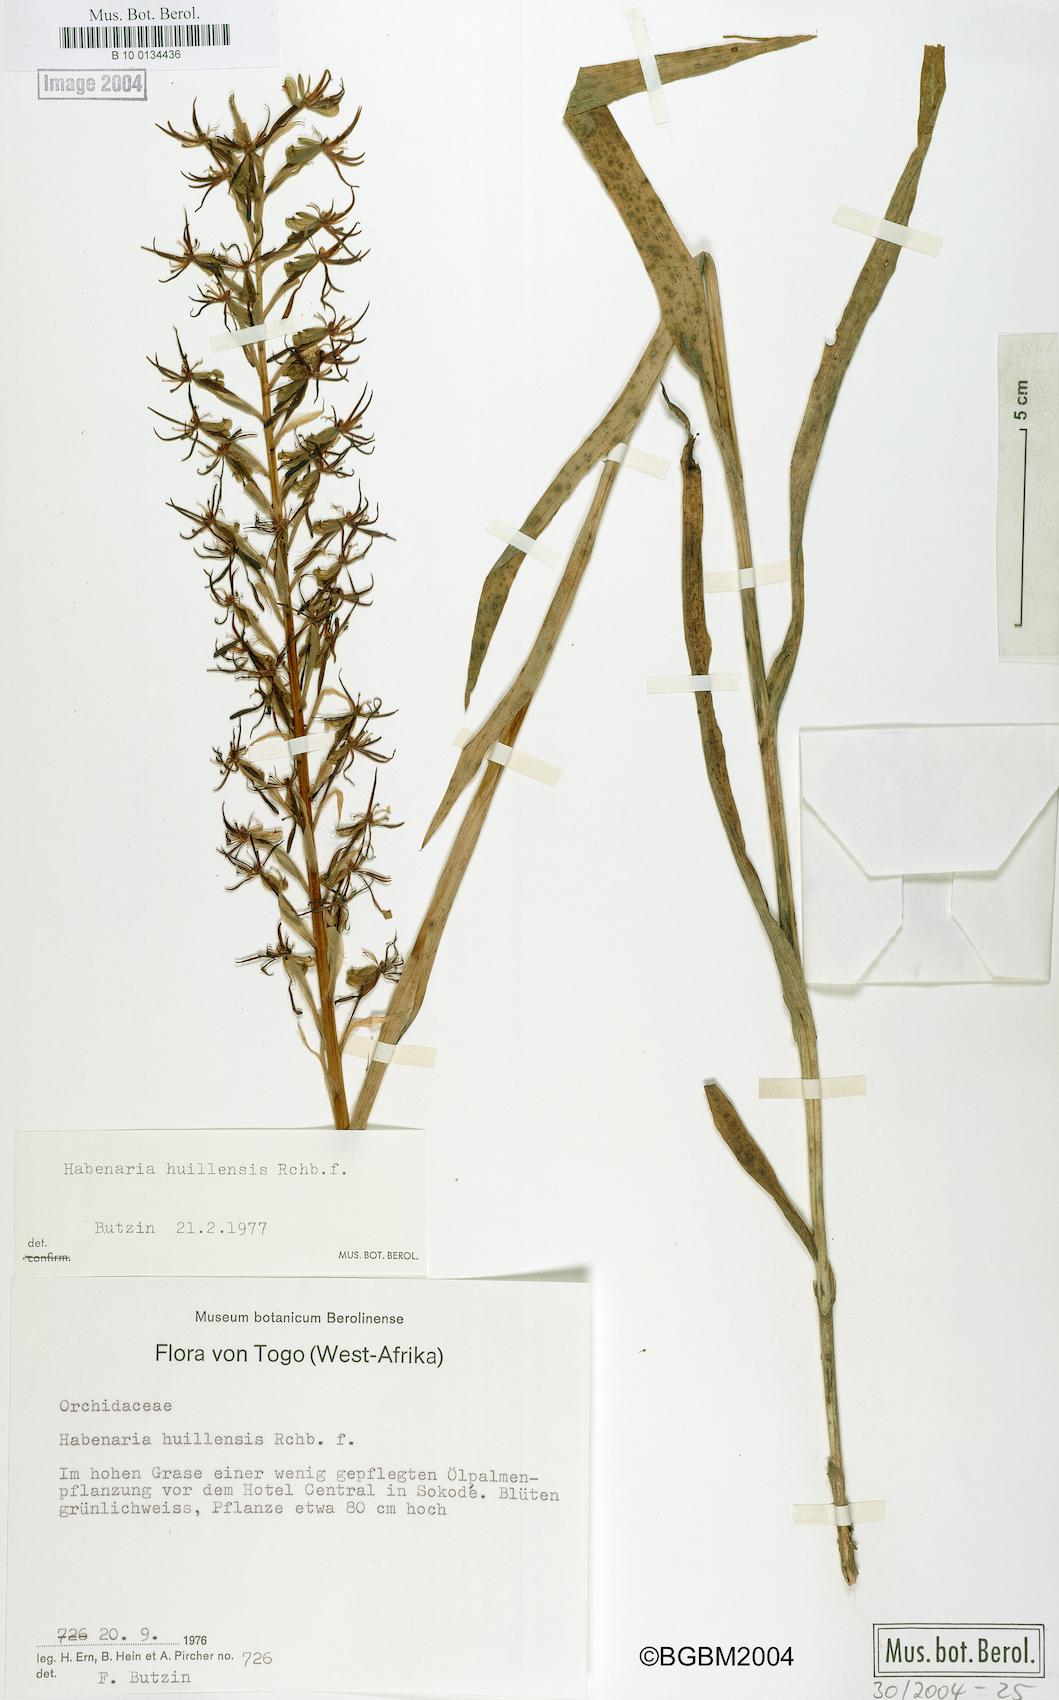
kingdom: Plantae
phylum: Tracheophyta
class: Liliopsida
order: Asparagales
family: Orchidaceae
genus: Habenaria
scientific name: Habenaria huillensis
